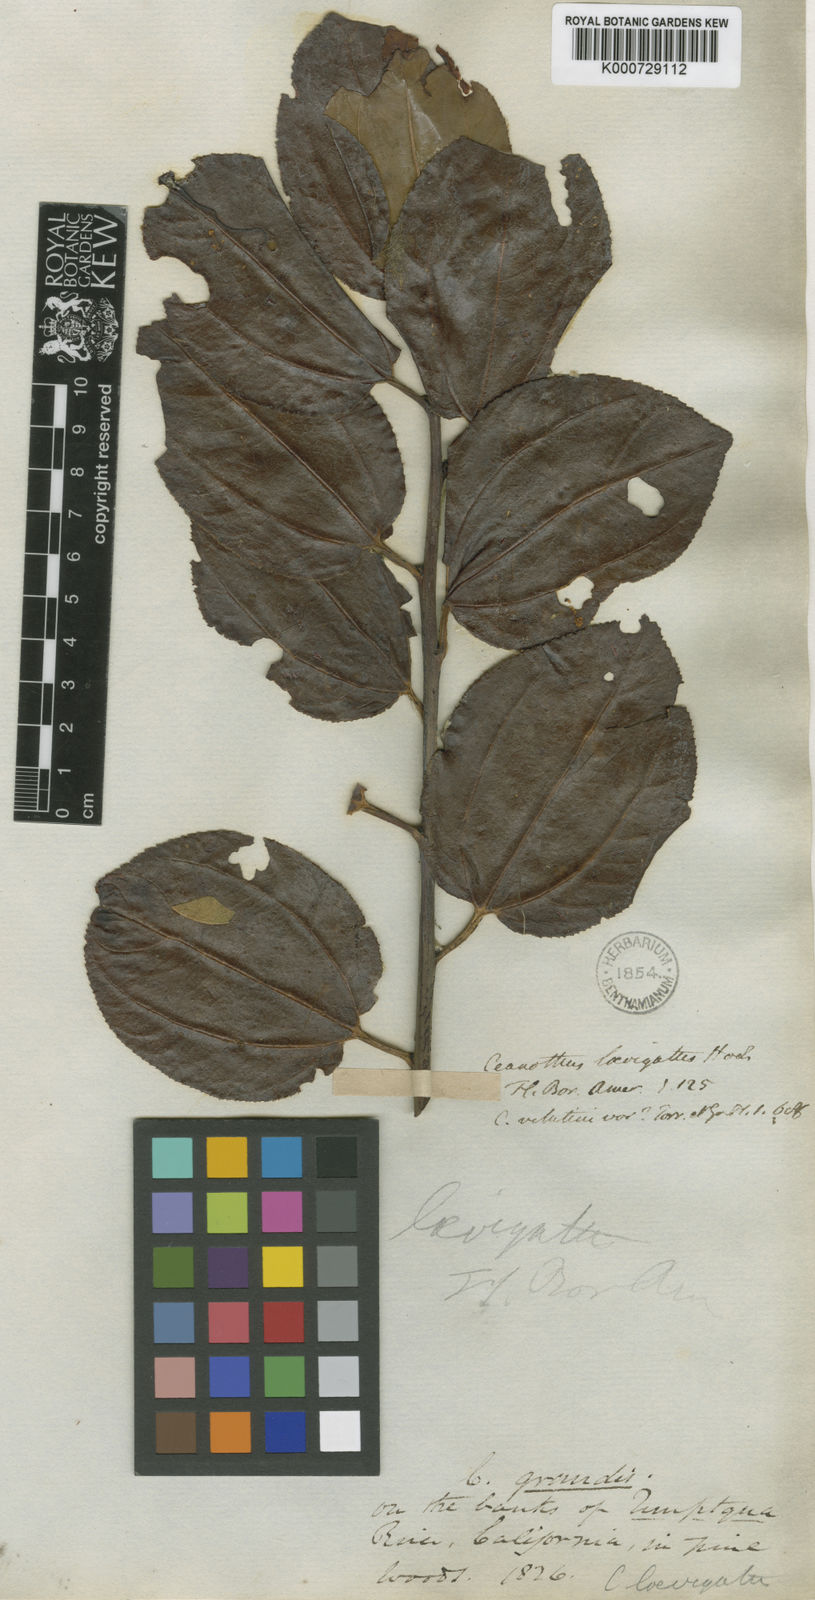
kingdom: Plantae
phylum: Tracheophyta
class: Magnoliopsida
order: Rosales
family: Rhamnaceae
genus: Ceanothus
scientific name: Ceanothus velutinus
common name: Snowbrush
